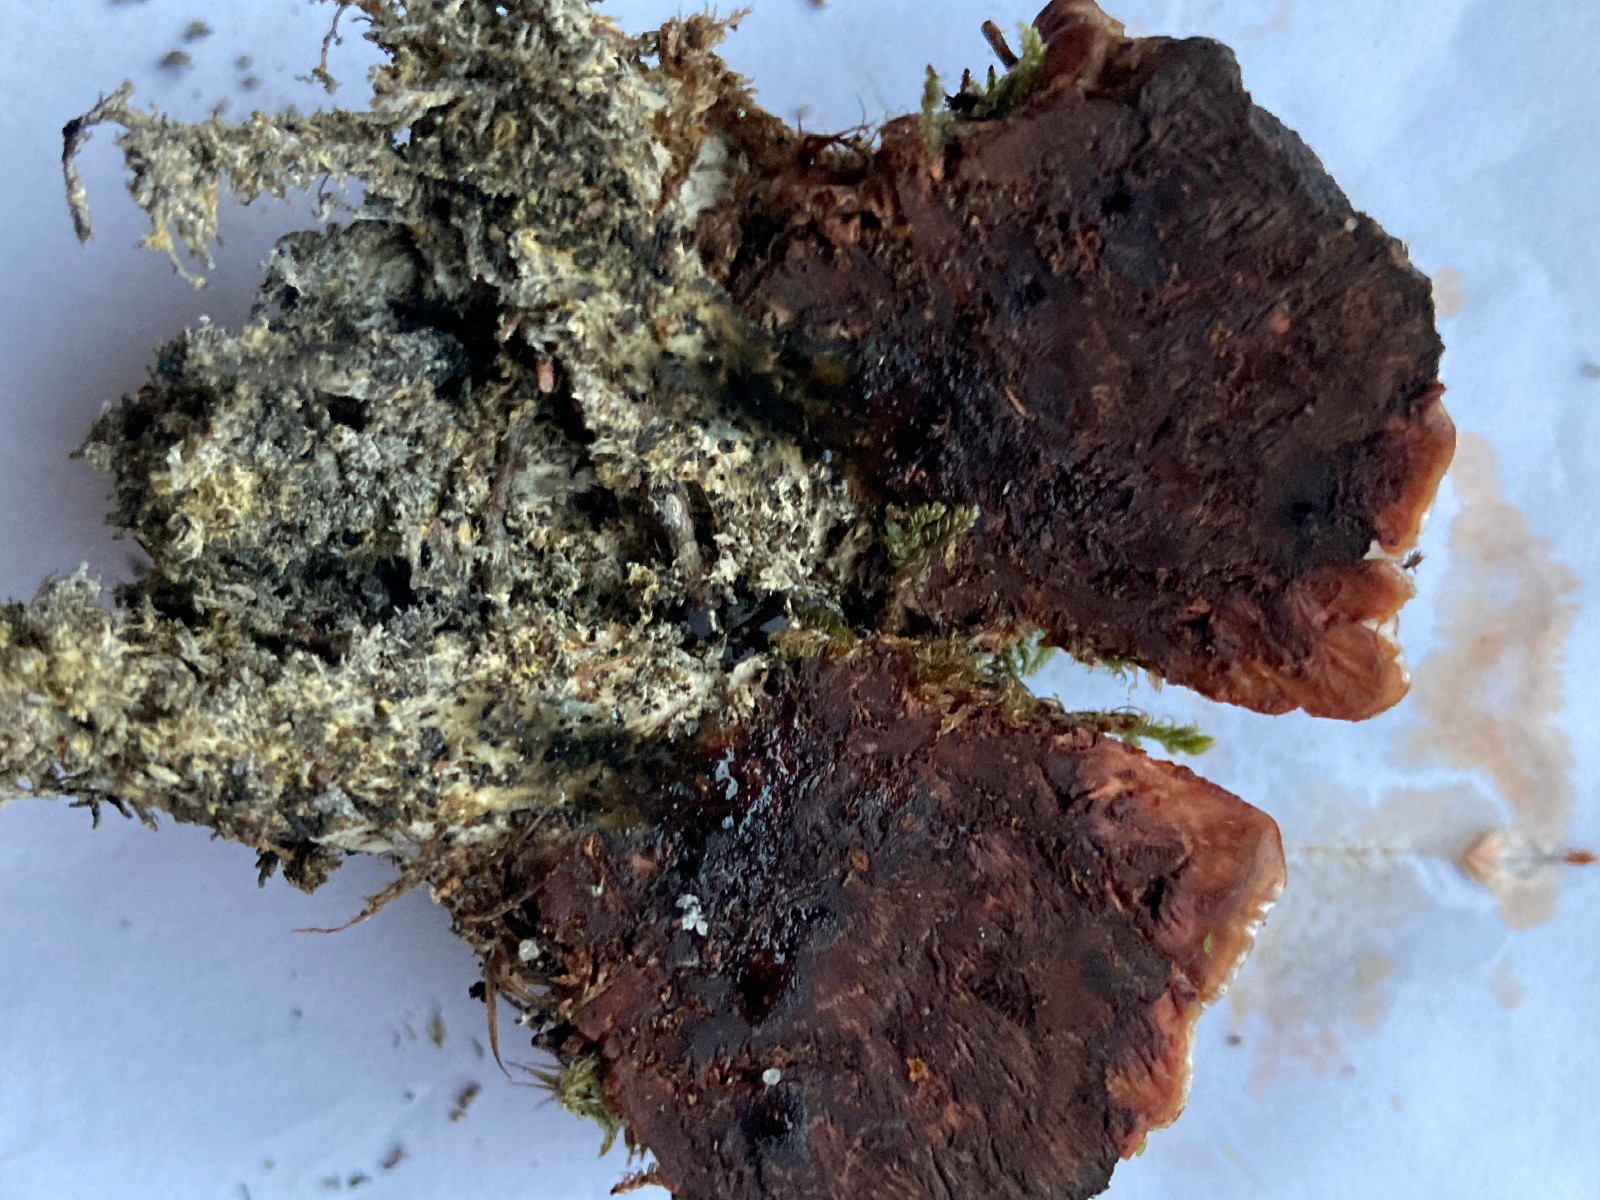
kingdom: Fungi
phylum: Basidiomycota
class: Agaricomycetes
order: Thelephorales
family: Bankeraceae
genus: Hydnellum
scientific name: Hydnellum ferrugineum
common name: rust-korkpigsvamp
